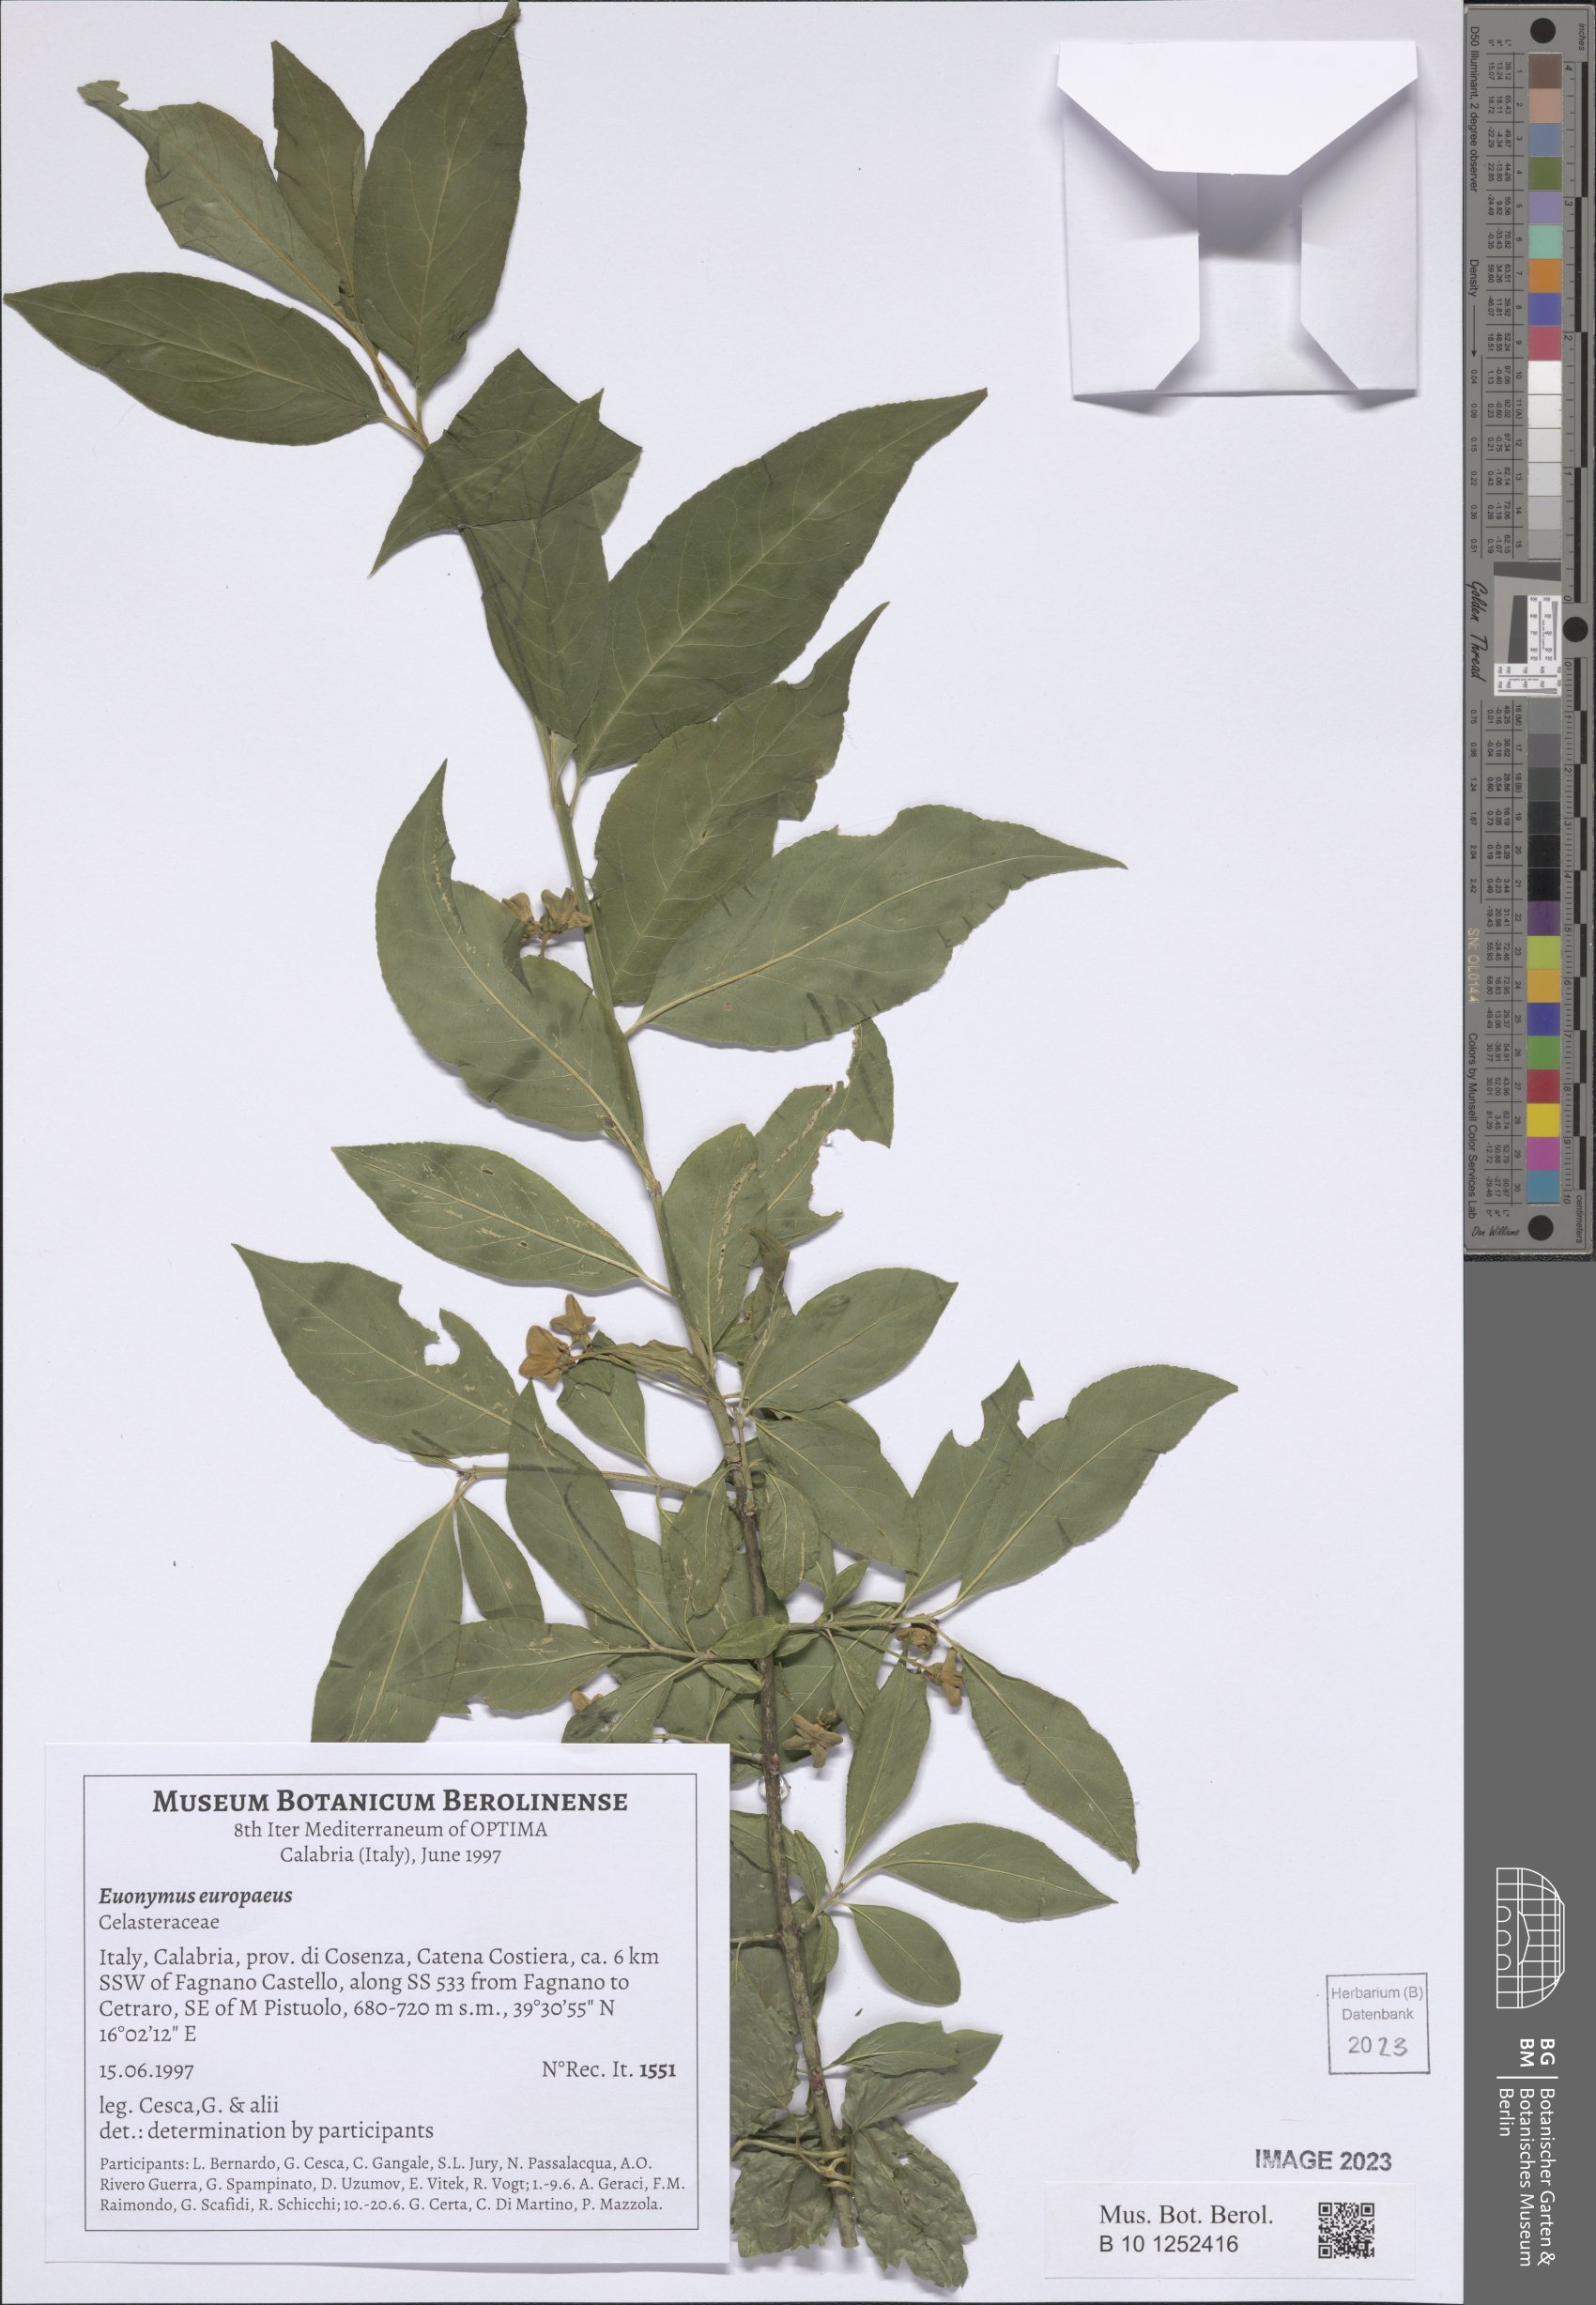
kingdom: Plantae
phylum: Tracheophyta
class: Magnoliopsida
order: Celastrales
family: Celastraceae
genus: Euonymus
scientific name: Euonymus europaeus
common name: Spindle
